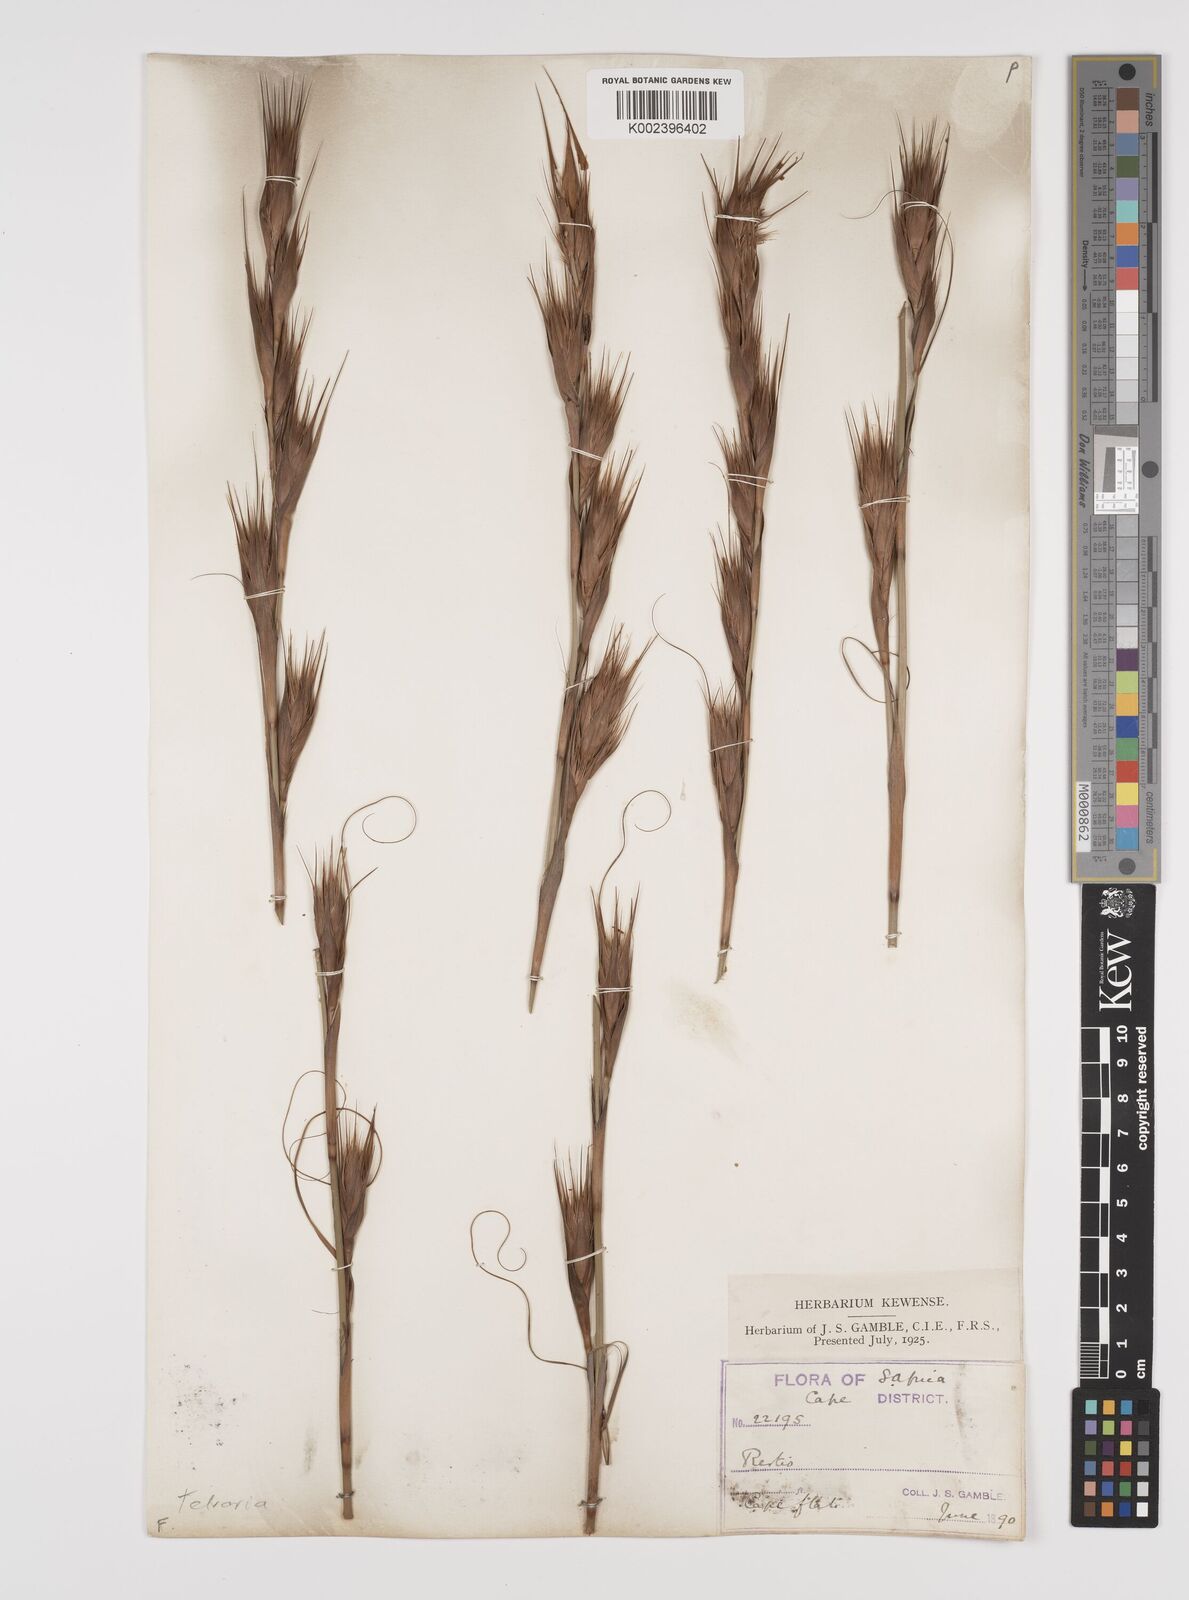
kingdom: Plantae
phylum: Tracheophyta
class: Liliopsida
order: Poales
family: Cyperaceae
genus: Tetraria
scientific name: Tetraria
